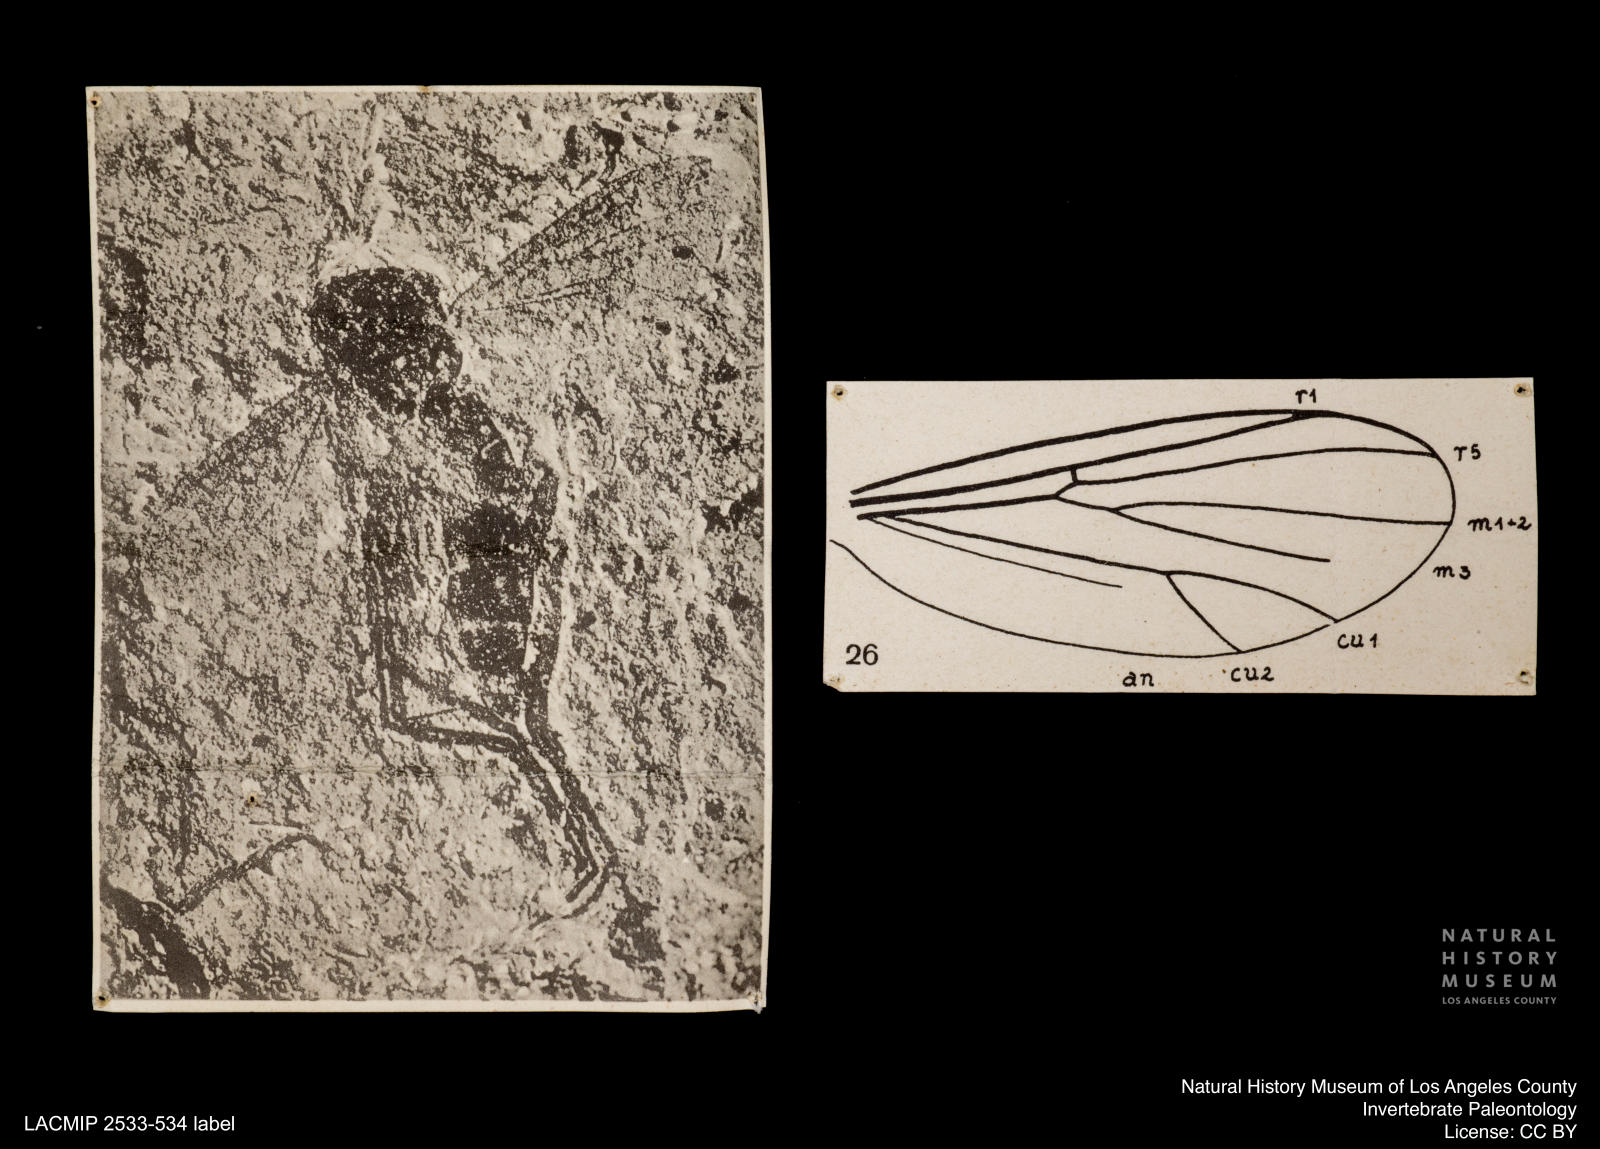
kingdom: Animalia
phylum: Arthropoda
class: Insecta
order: Diptera
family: Mycetophilidae
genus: Cordyla
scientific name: Cordyla hastata
